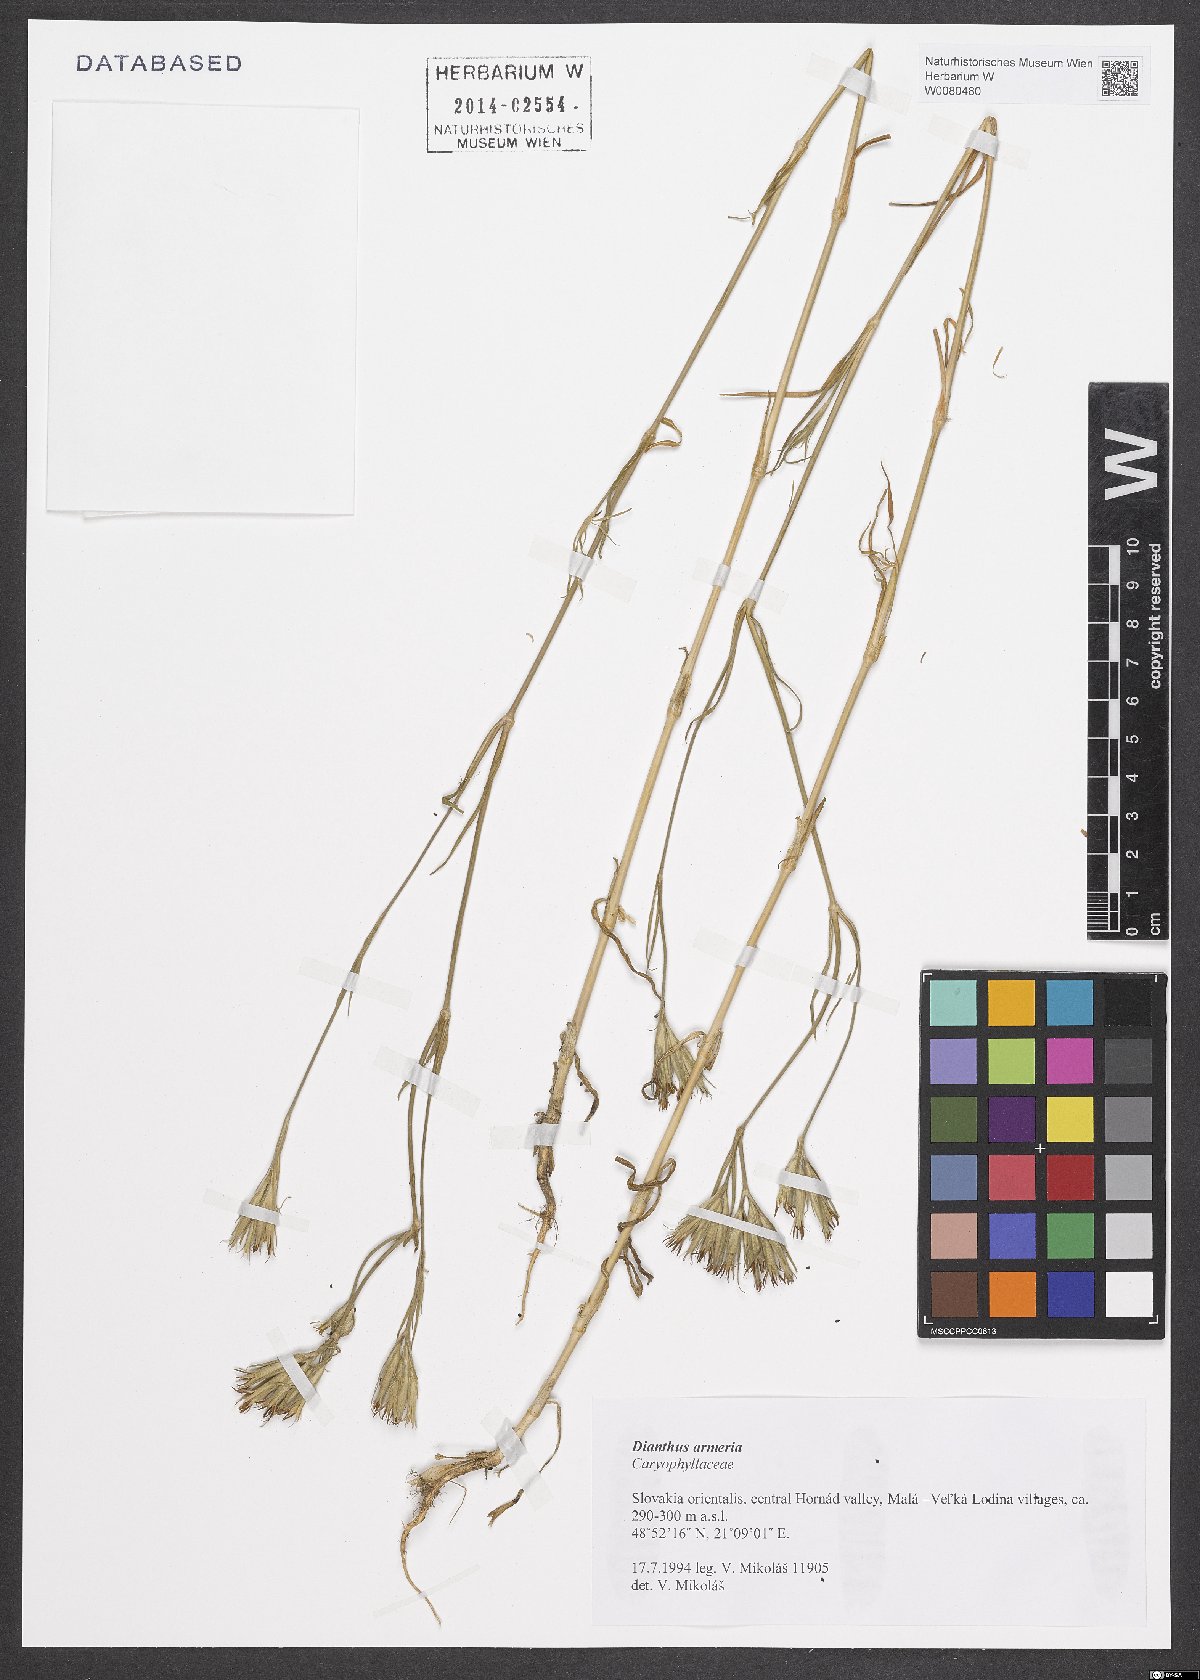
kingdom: Plantae
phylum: Tracheophyta
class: Magnoliopsida
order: Caryophyllales
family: Caryophyllaceae
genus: Dianthus
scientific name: Dianthus armeria
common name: Deptford pink
